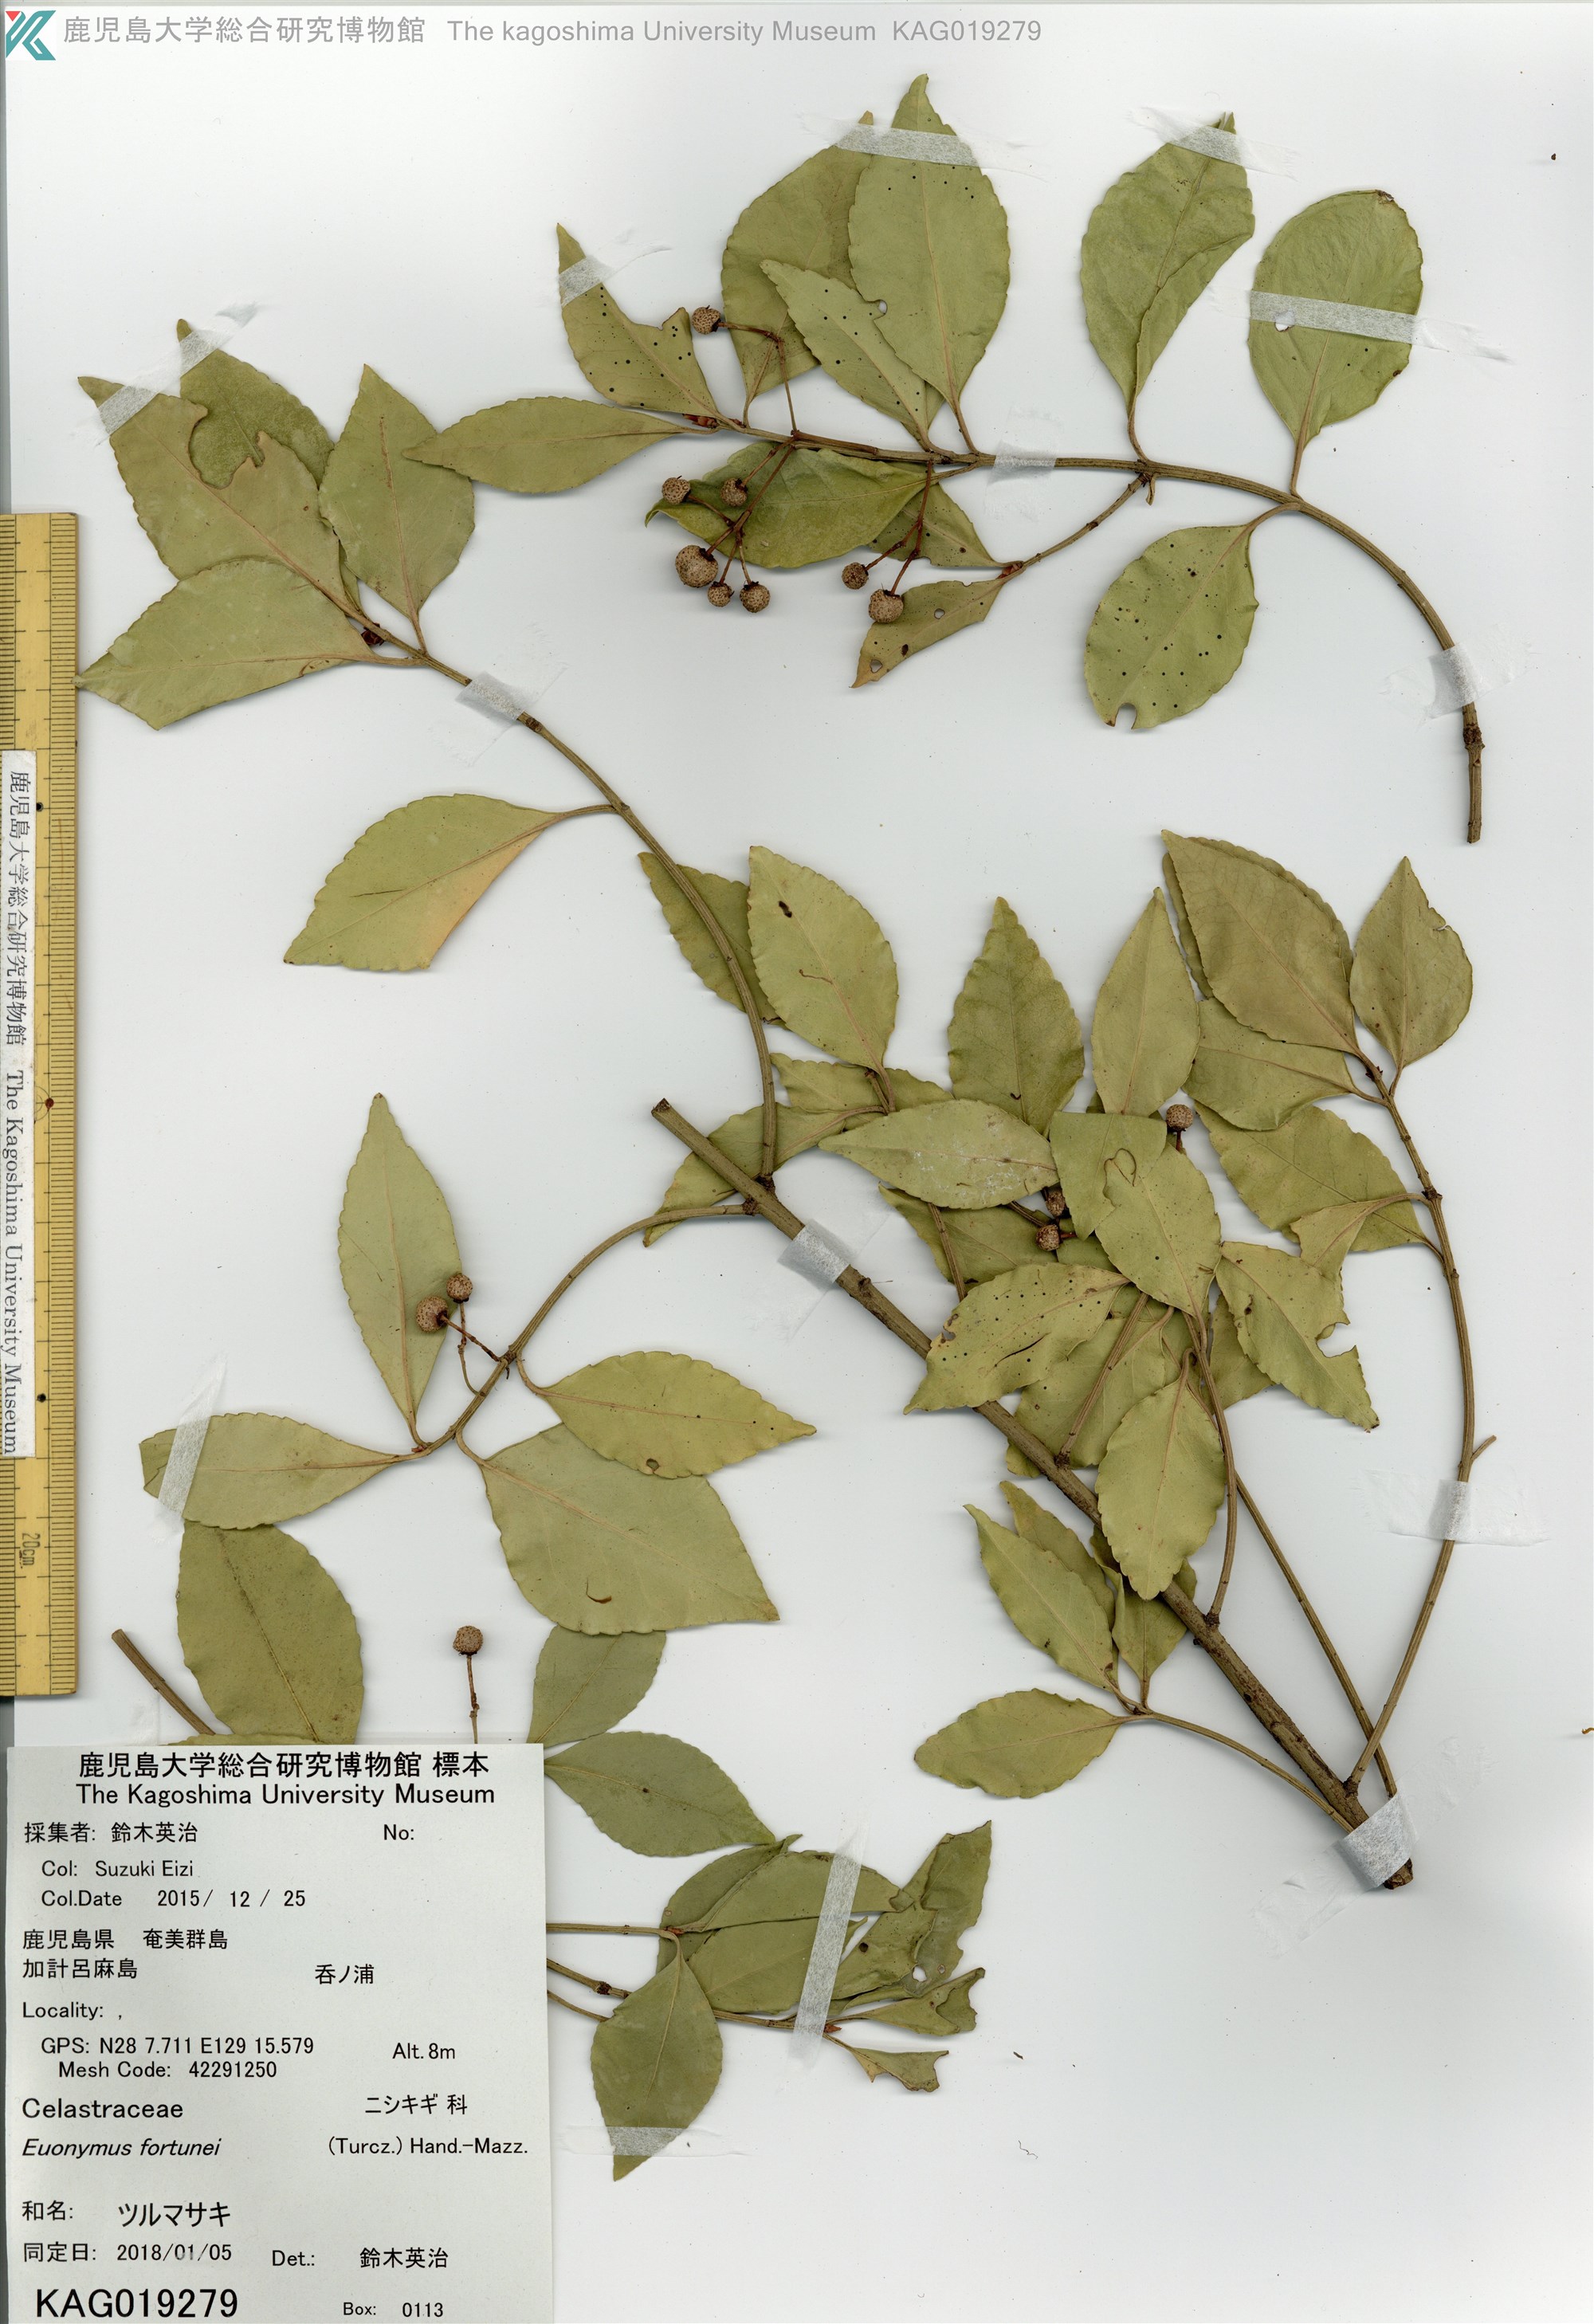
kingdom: Plantae
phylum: Tracheophyta
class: Magnoliopsida
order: Celastrales
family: Celastraceae
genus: Euonymus
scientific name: Euonymus fortunei
